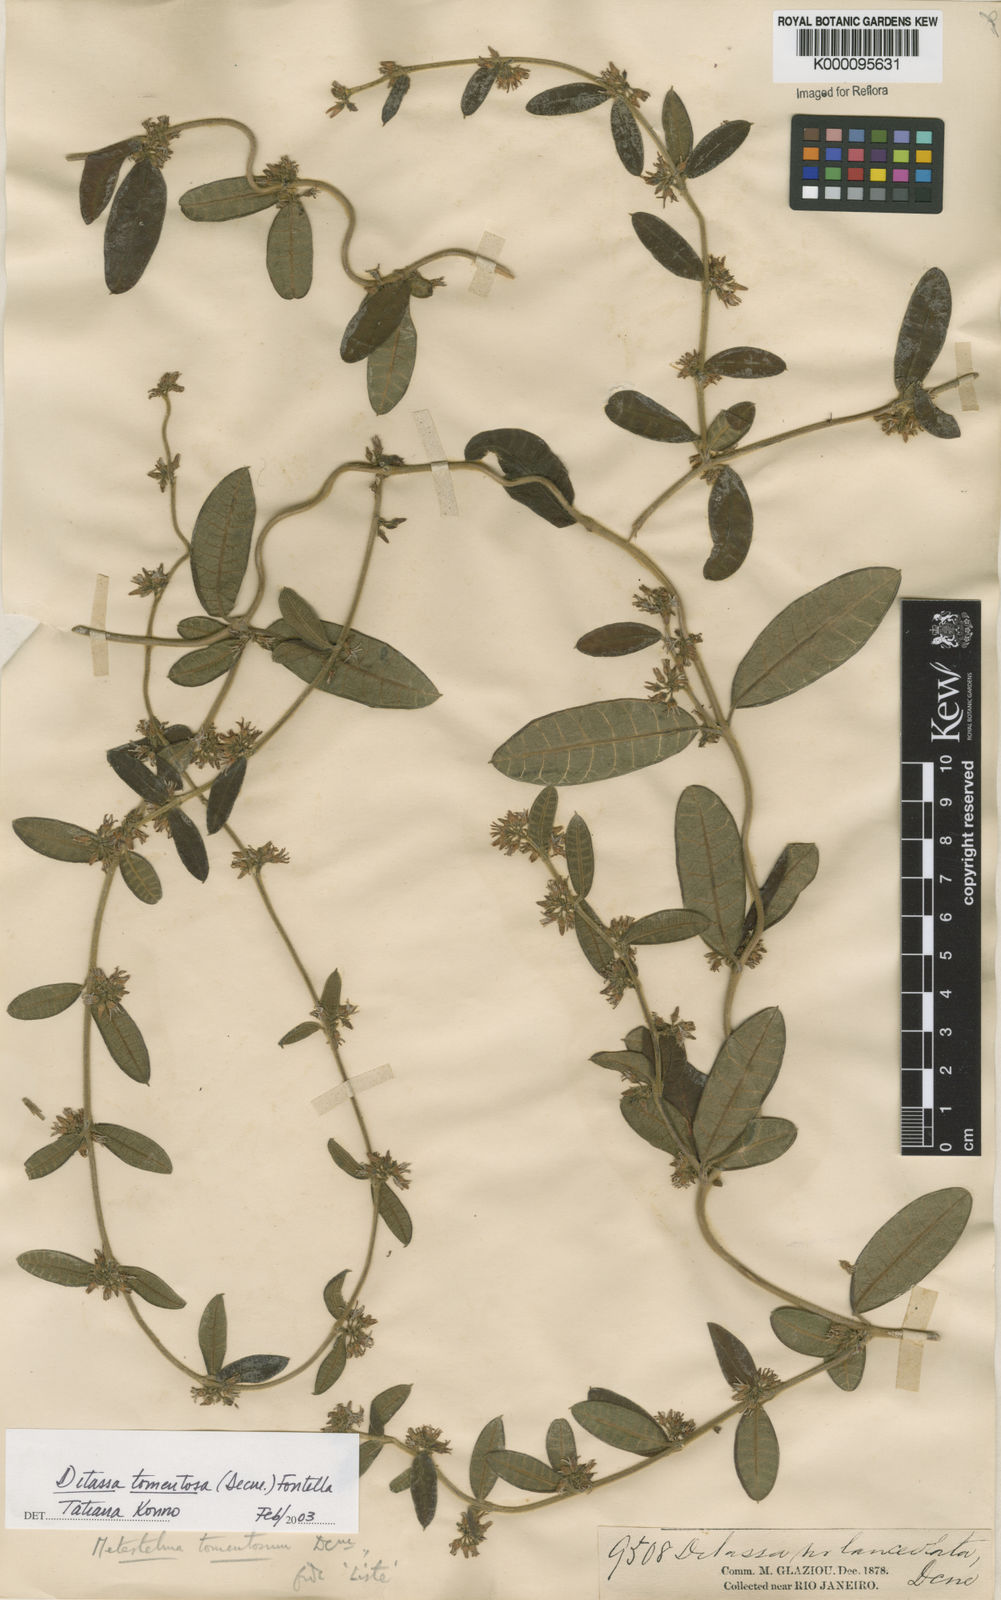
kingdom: Plantae
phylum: Tracheophyta
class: Magnoliopsida
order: Gentianales
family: Apocynaceae
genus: Ditassa
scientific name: Ditassa tomentosa
